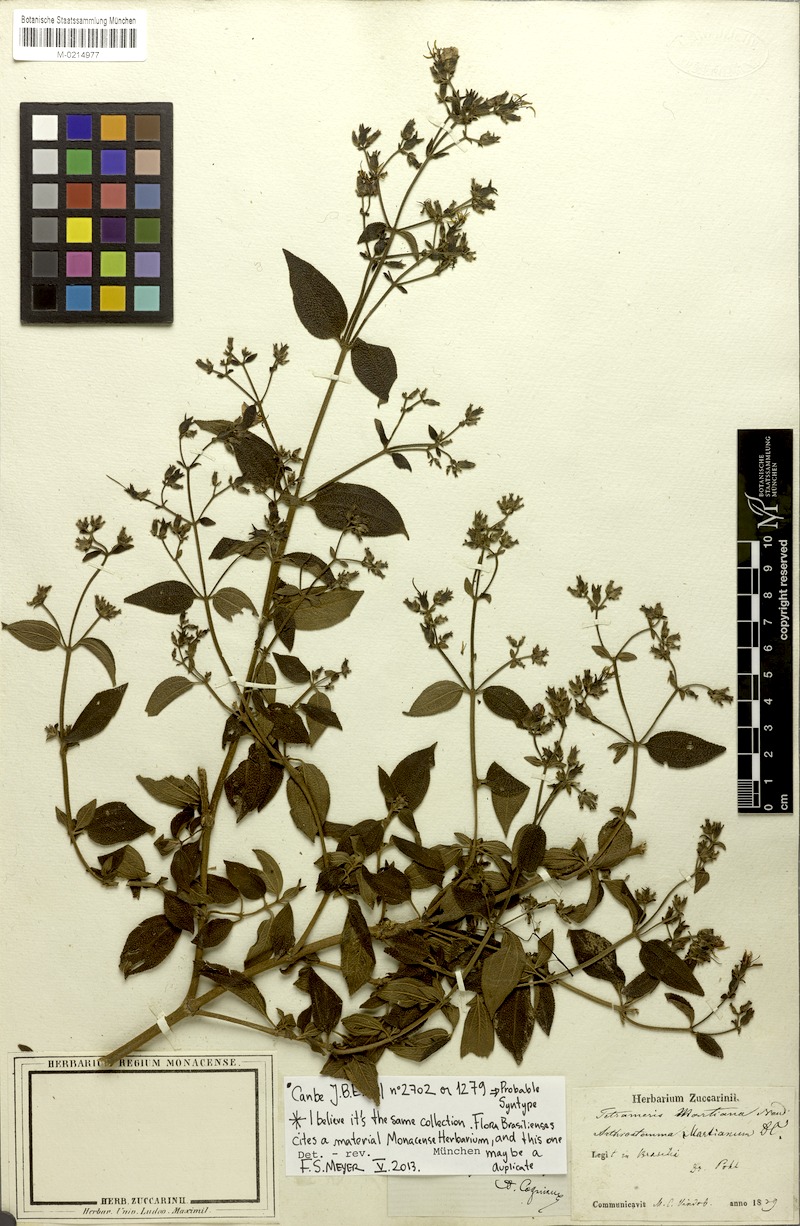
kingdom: Plantae
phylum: Tracheophyta
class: Magnoliopsida
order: Myrtales
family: Melastomataceae
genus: Chaetogastra
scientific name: Chaetogastra parviflora
